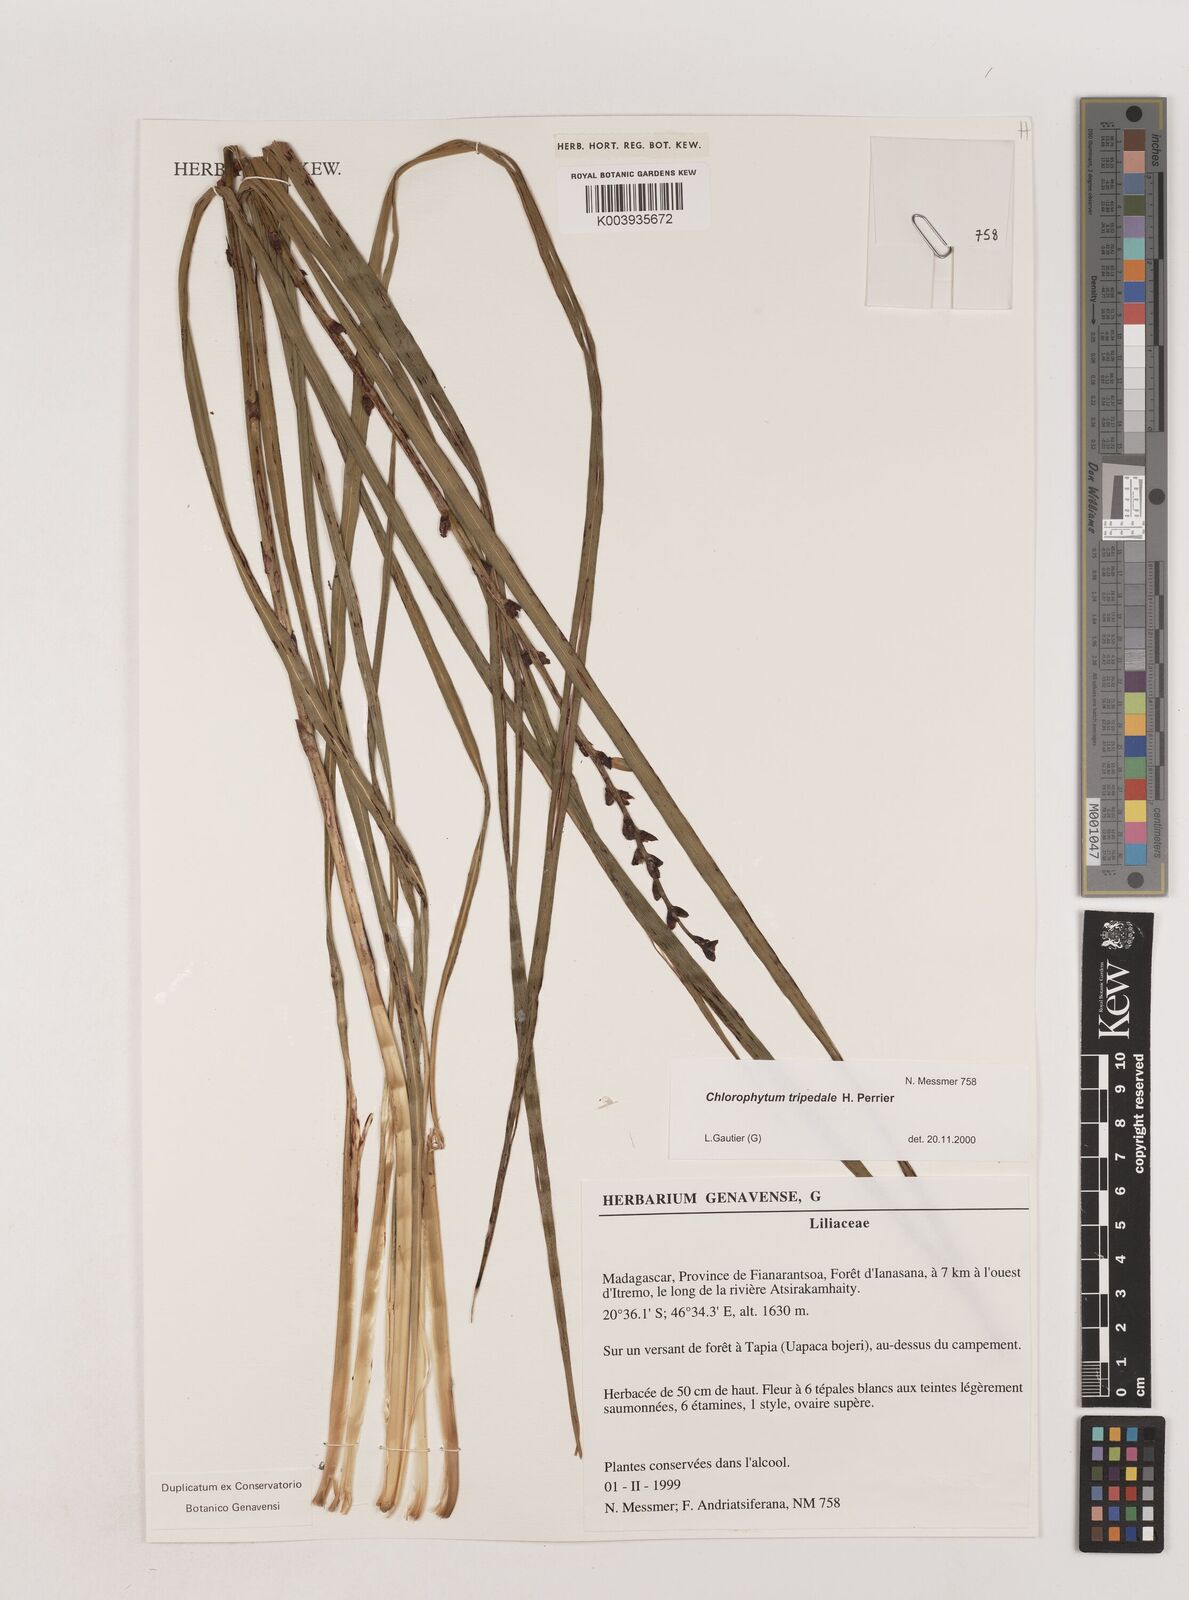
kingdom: Plantae
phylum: Tracheophyta
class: Liliopsida
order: Asparagales
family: Asparagaceae
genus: Chlorophytum
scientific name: Chlorophytum tripedale
